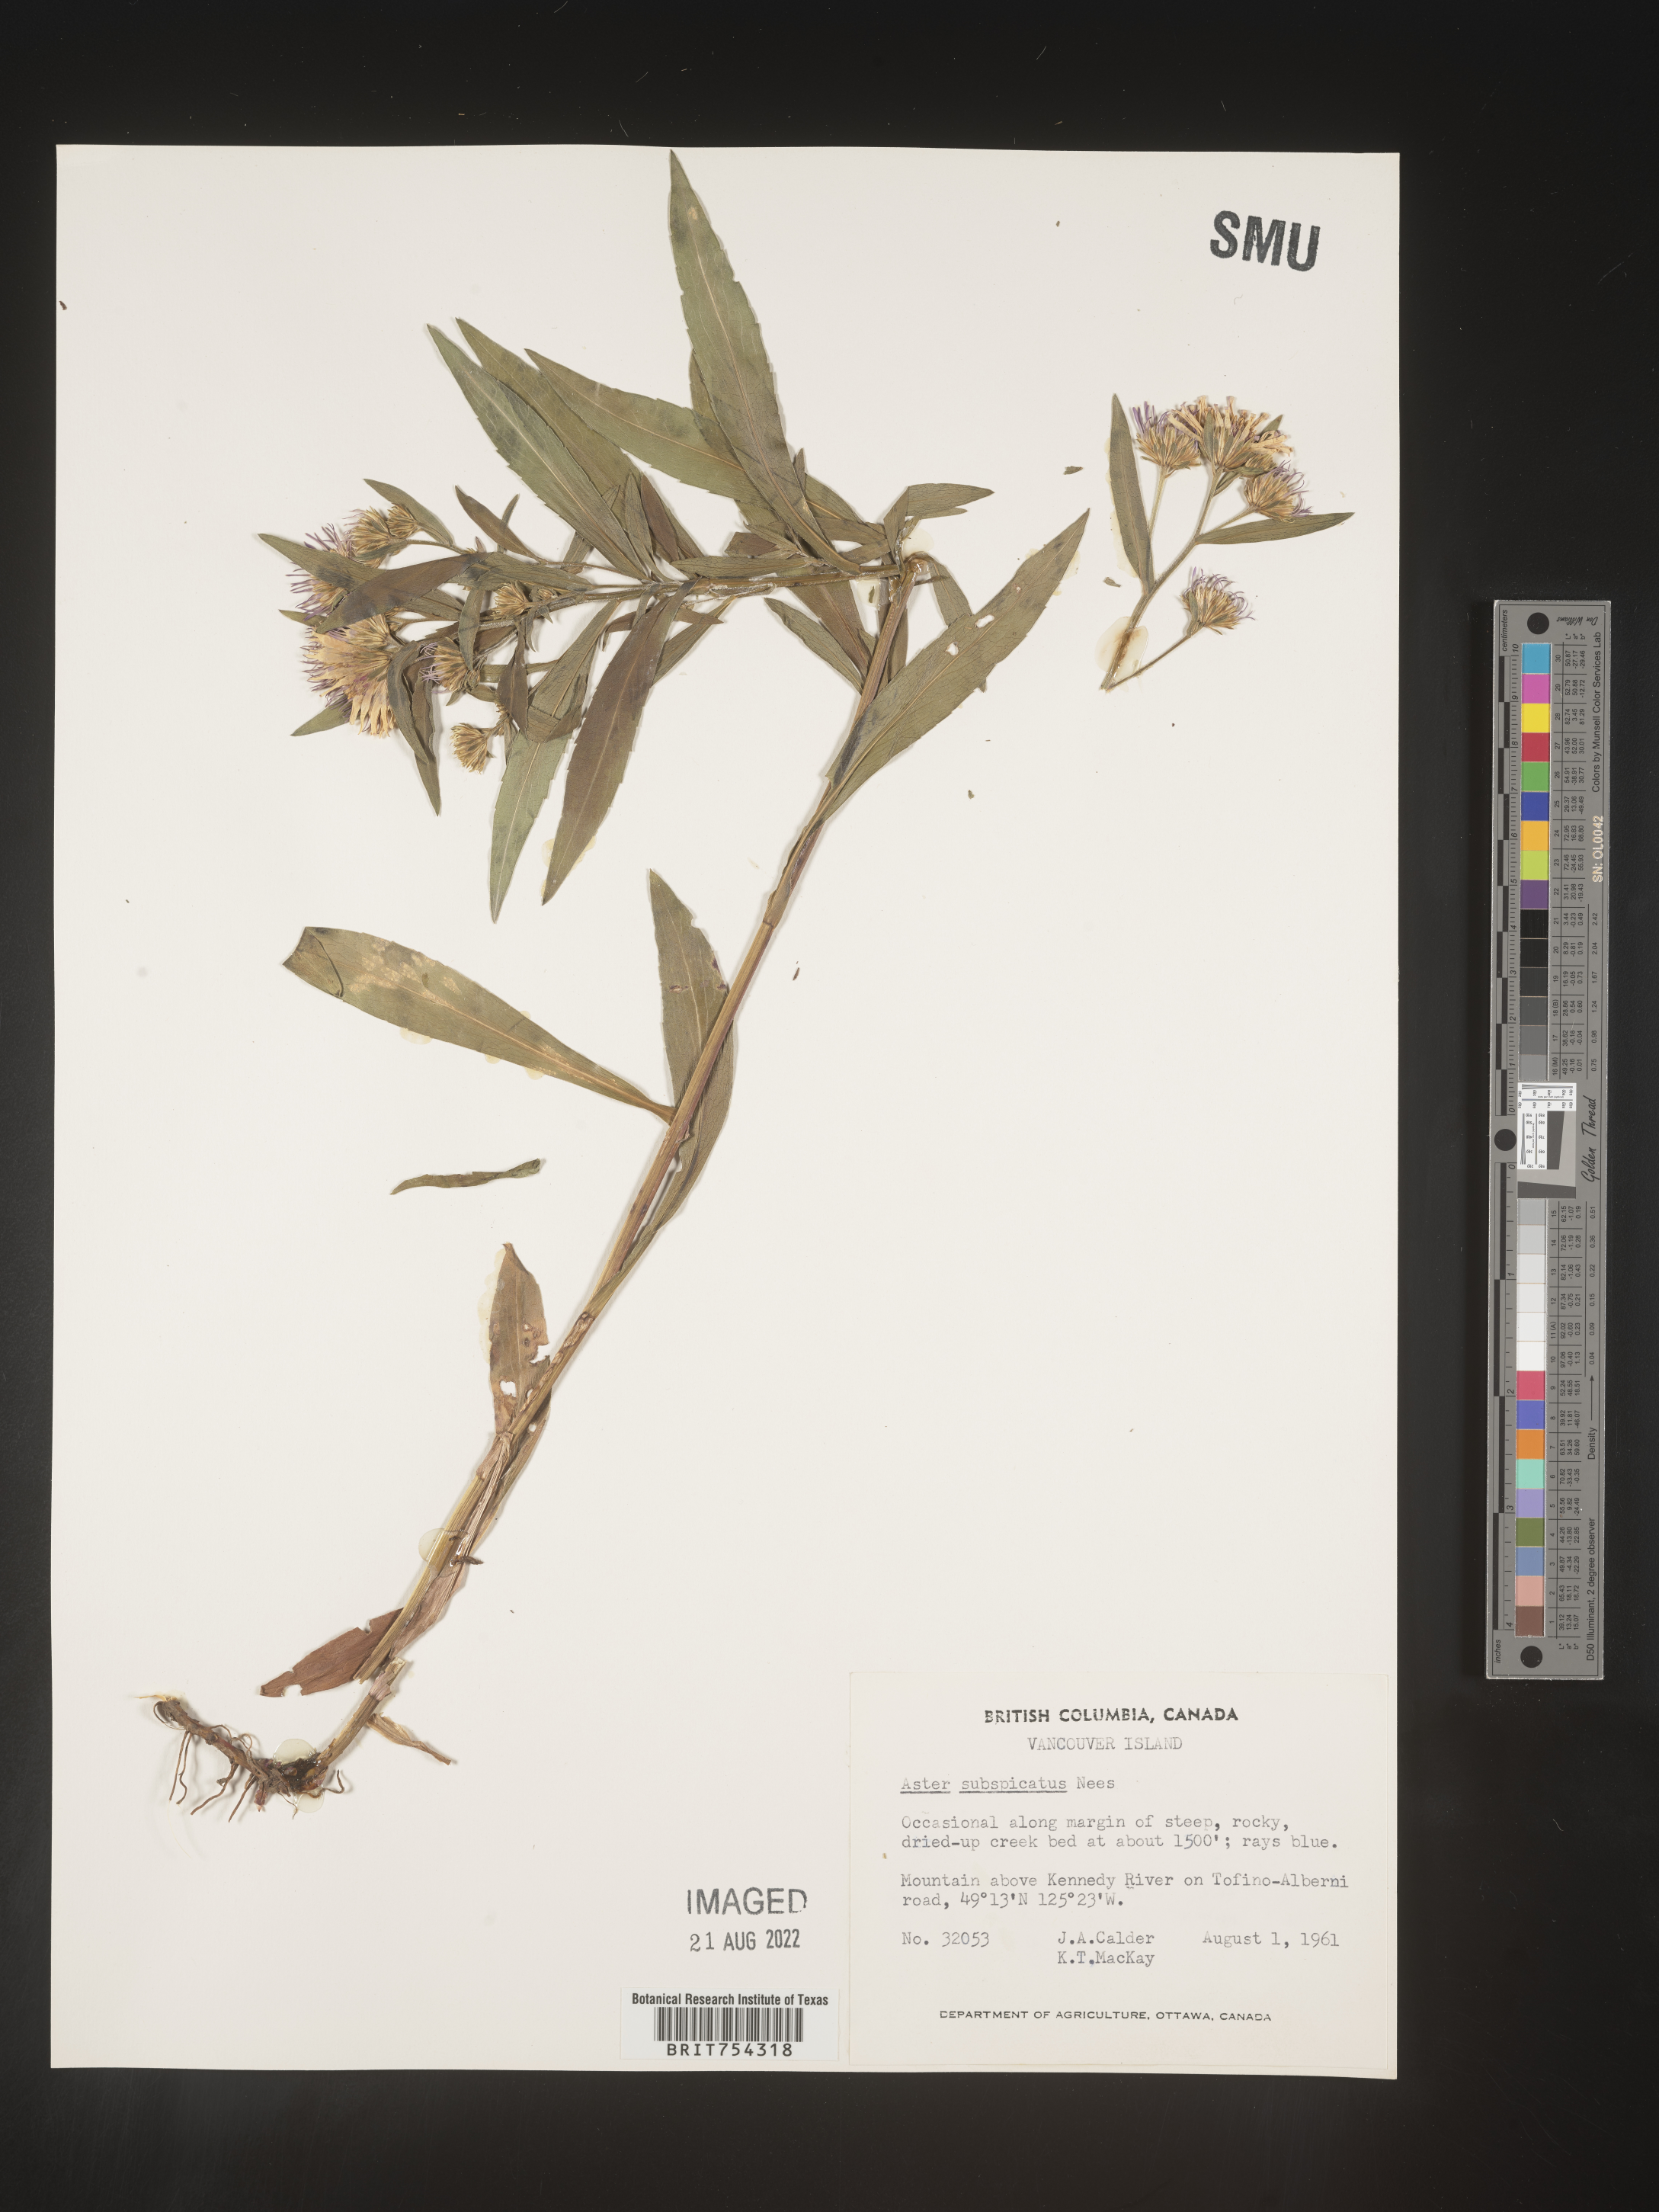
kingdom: Plantae
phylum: Tracheophyta
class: Magnoliopsida
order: Asterales
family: Asteraceae
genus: Symphyotrichum
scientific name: Symphyotrichum subspicatum
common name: Douglas' aster
